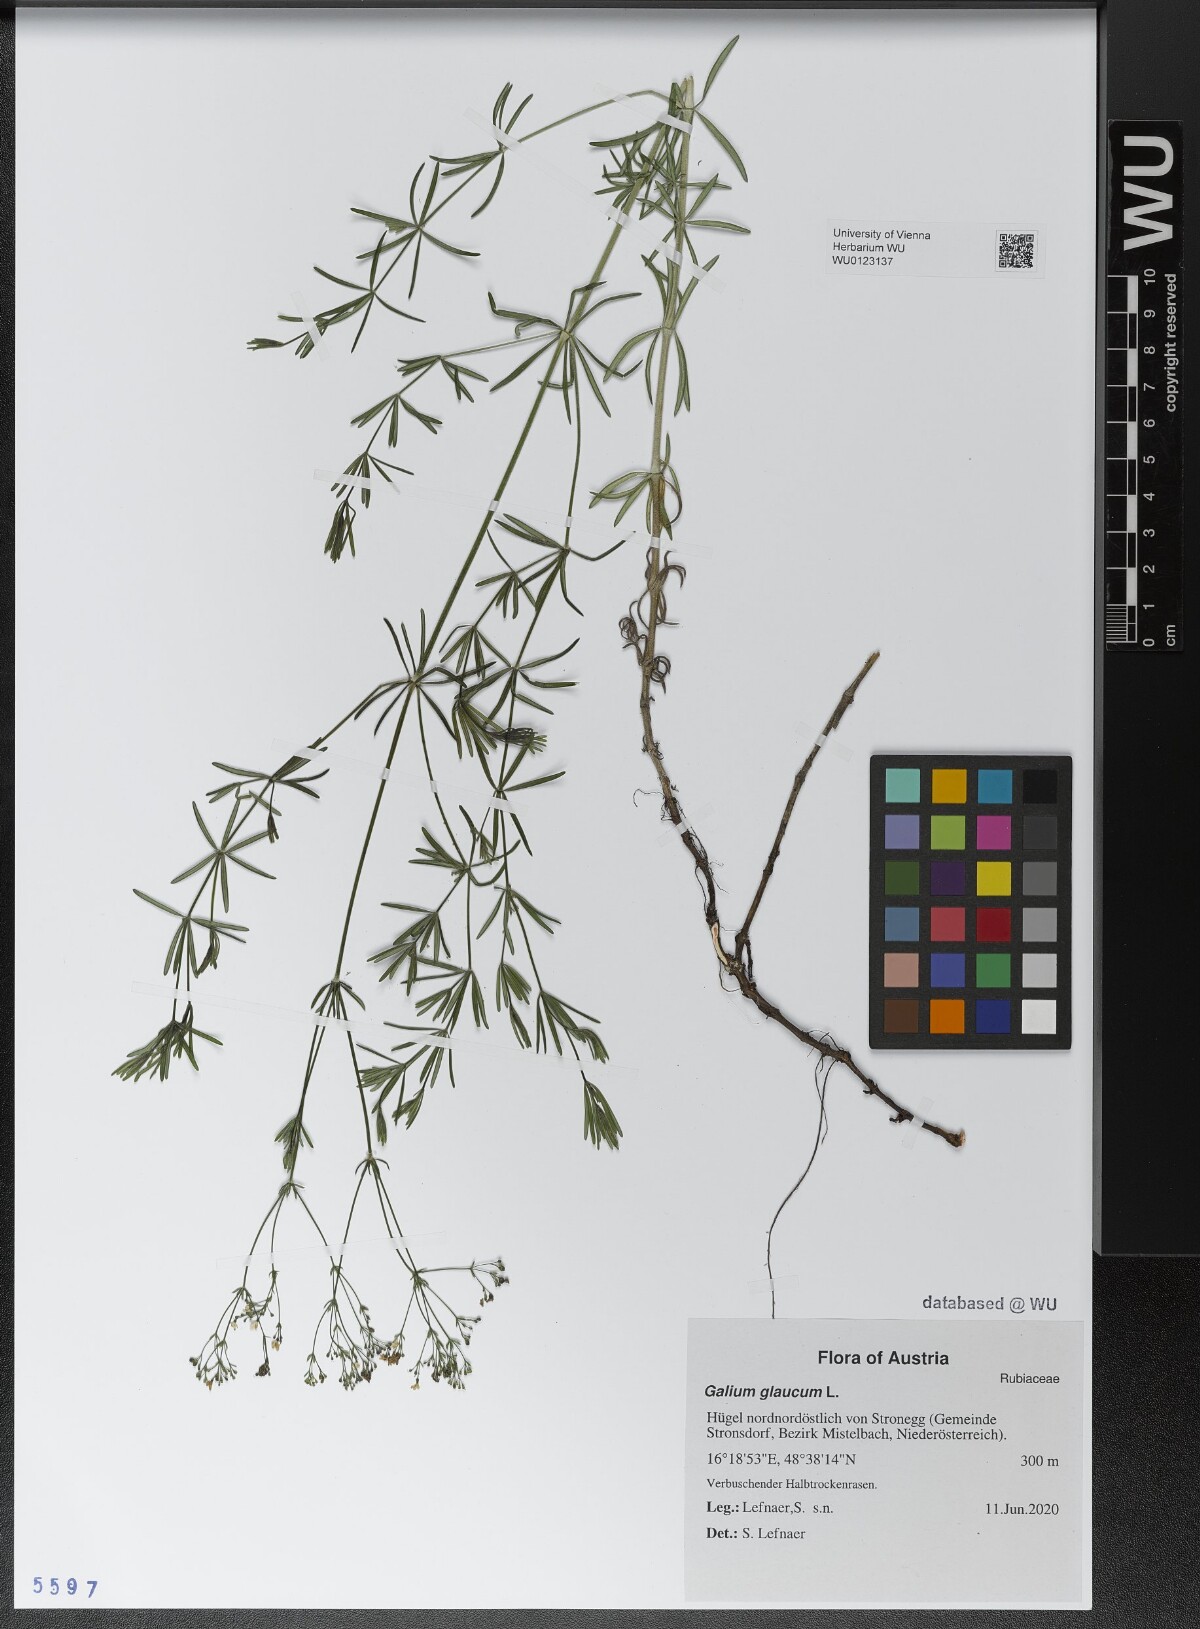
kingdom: Plantae
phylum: Tracheophyta
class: Magnoliopsida
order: Gentianales
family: Rubiaceae
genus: Galium
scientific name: Galium glaucum
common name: Waxy bedstraw
